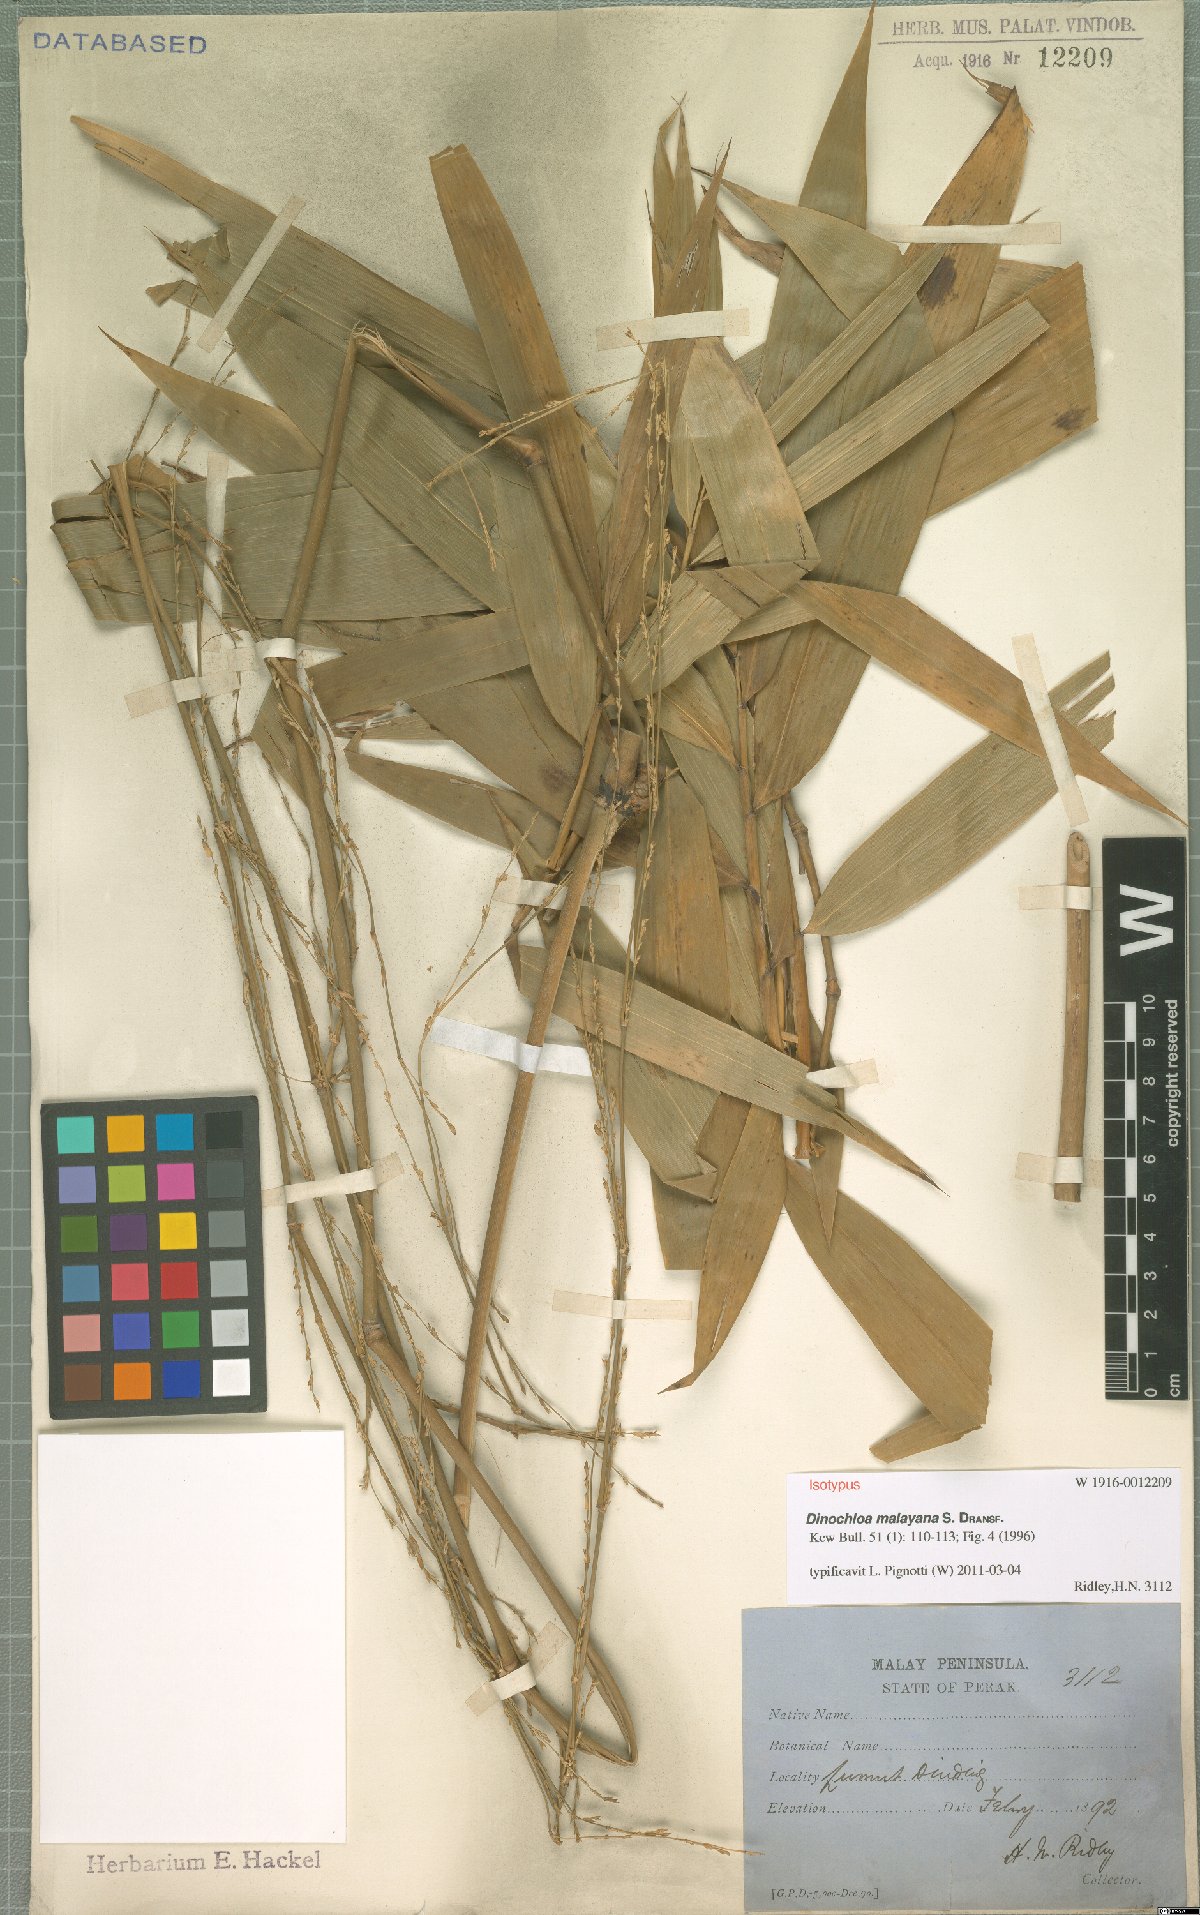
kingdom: Plantae
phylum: Tracheophyta
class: Liliopsida
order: Poales
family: Poaceae
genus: Dinochloa
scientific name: Dinochloa malayana
